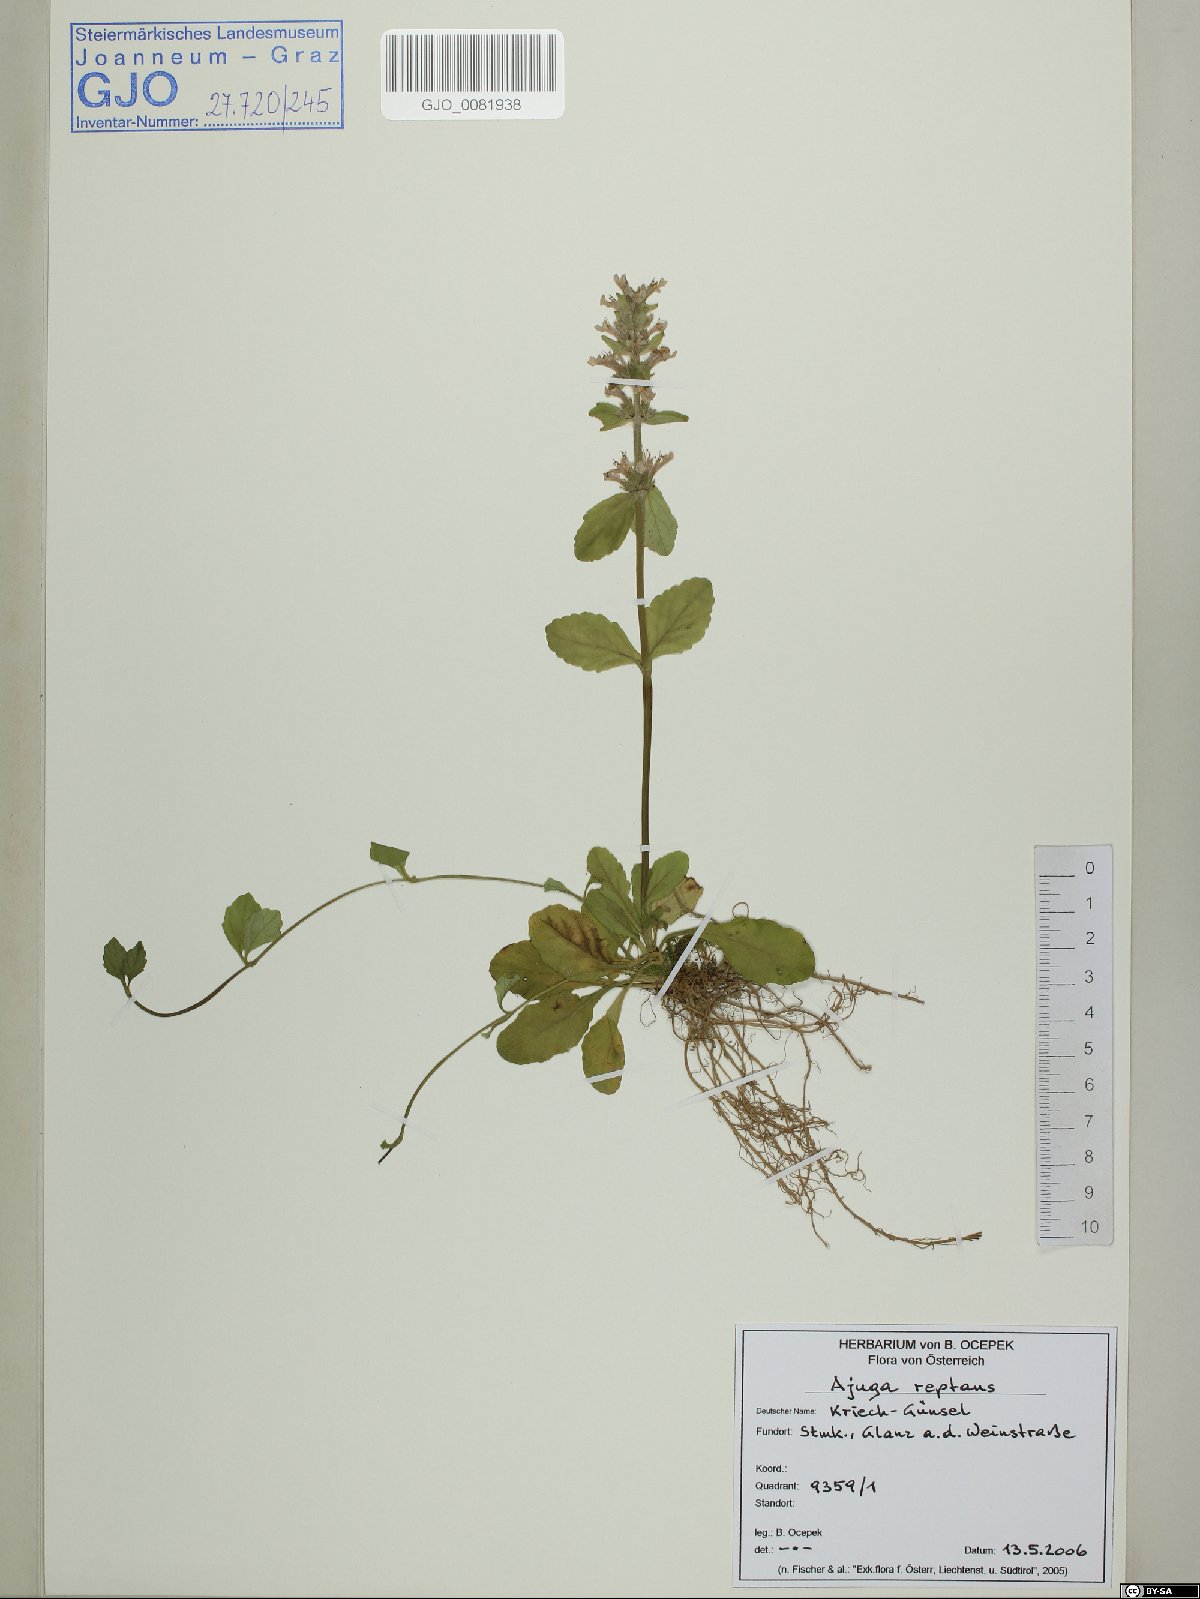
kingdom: Plantae
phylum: Tracheophyta
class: Magnoliopsida
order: Lamiales
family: Lamiaceae
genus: Ajuga
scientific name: Ajuga reptans
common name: Bugle
